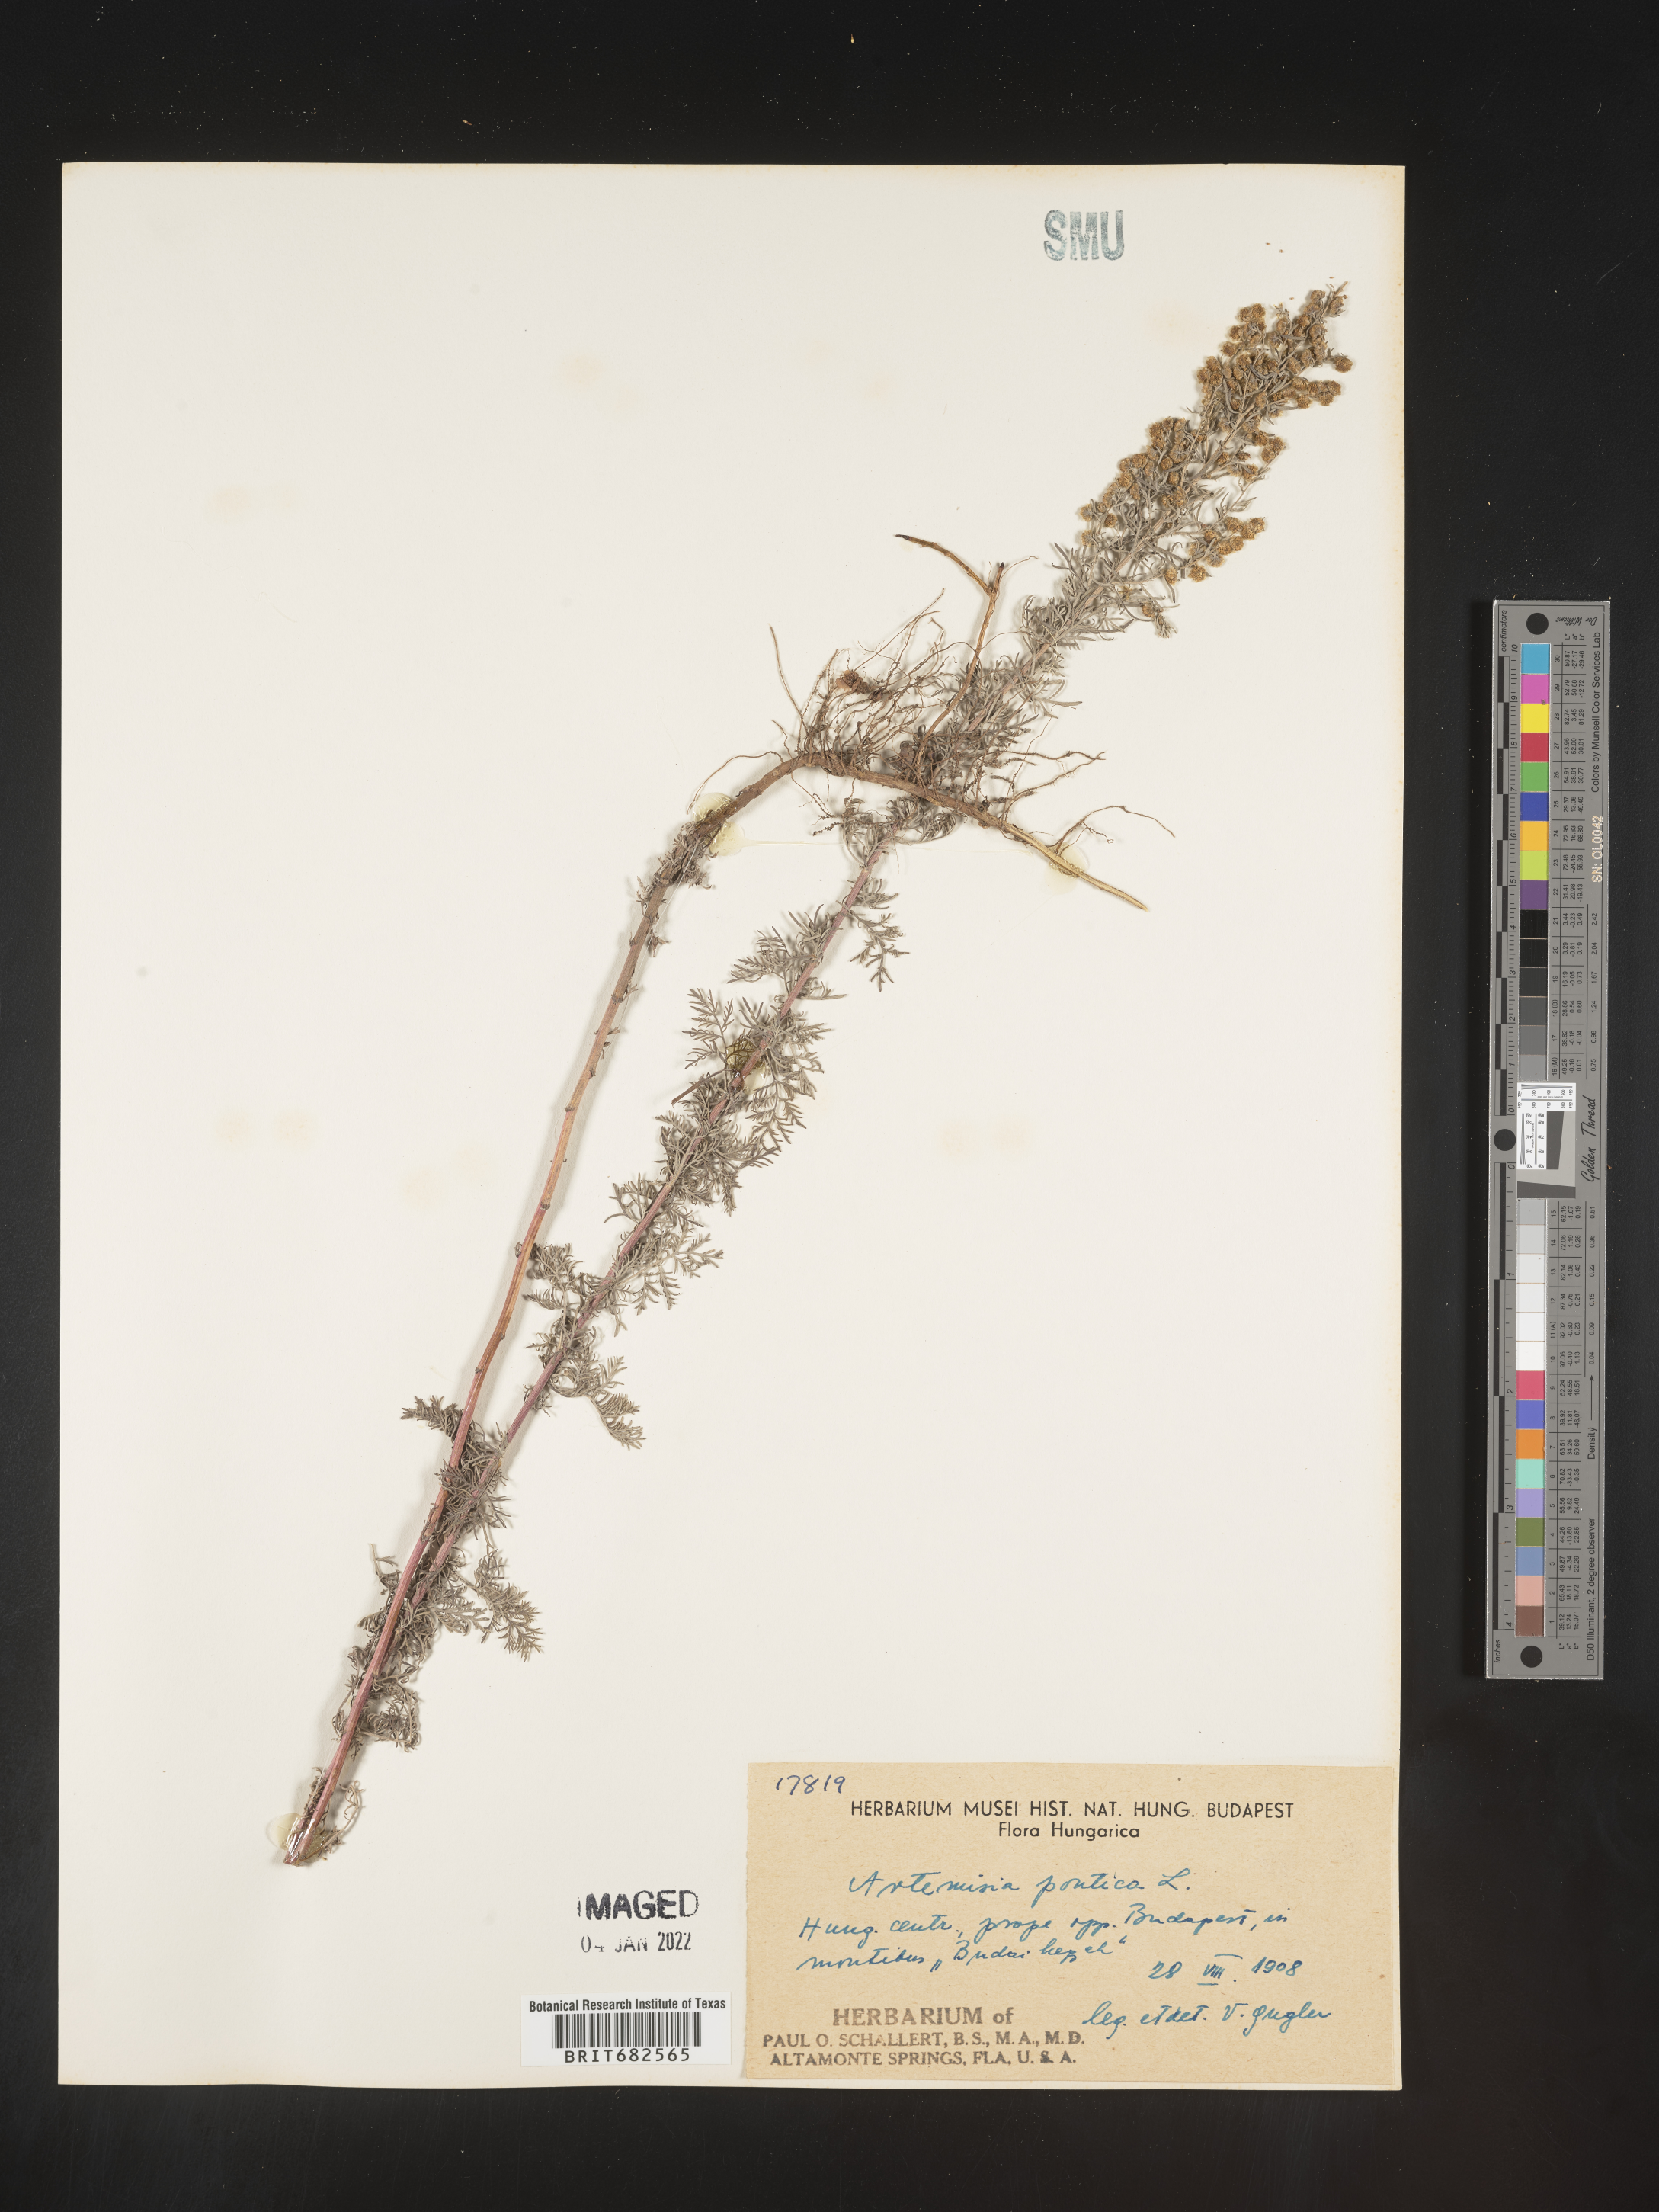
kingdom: Plantae
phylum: Tracheophyta
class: Magnoliopsida
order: Asterales
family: Asteraceae
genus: Artemisia
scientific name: Artemisia
